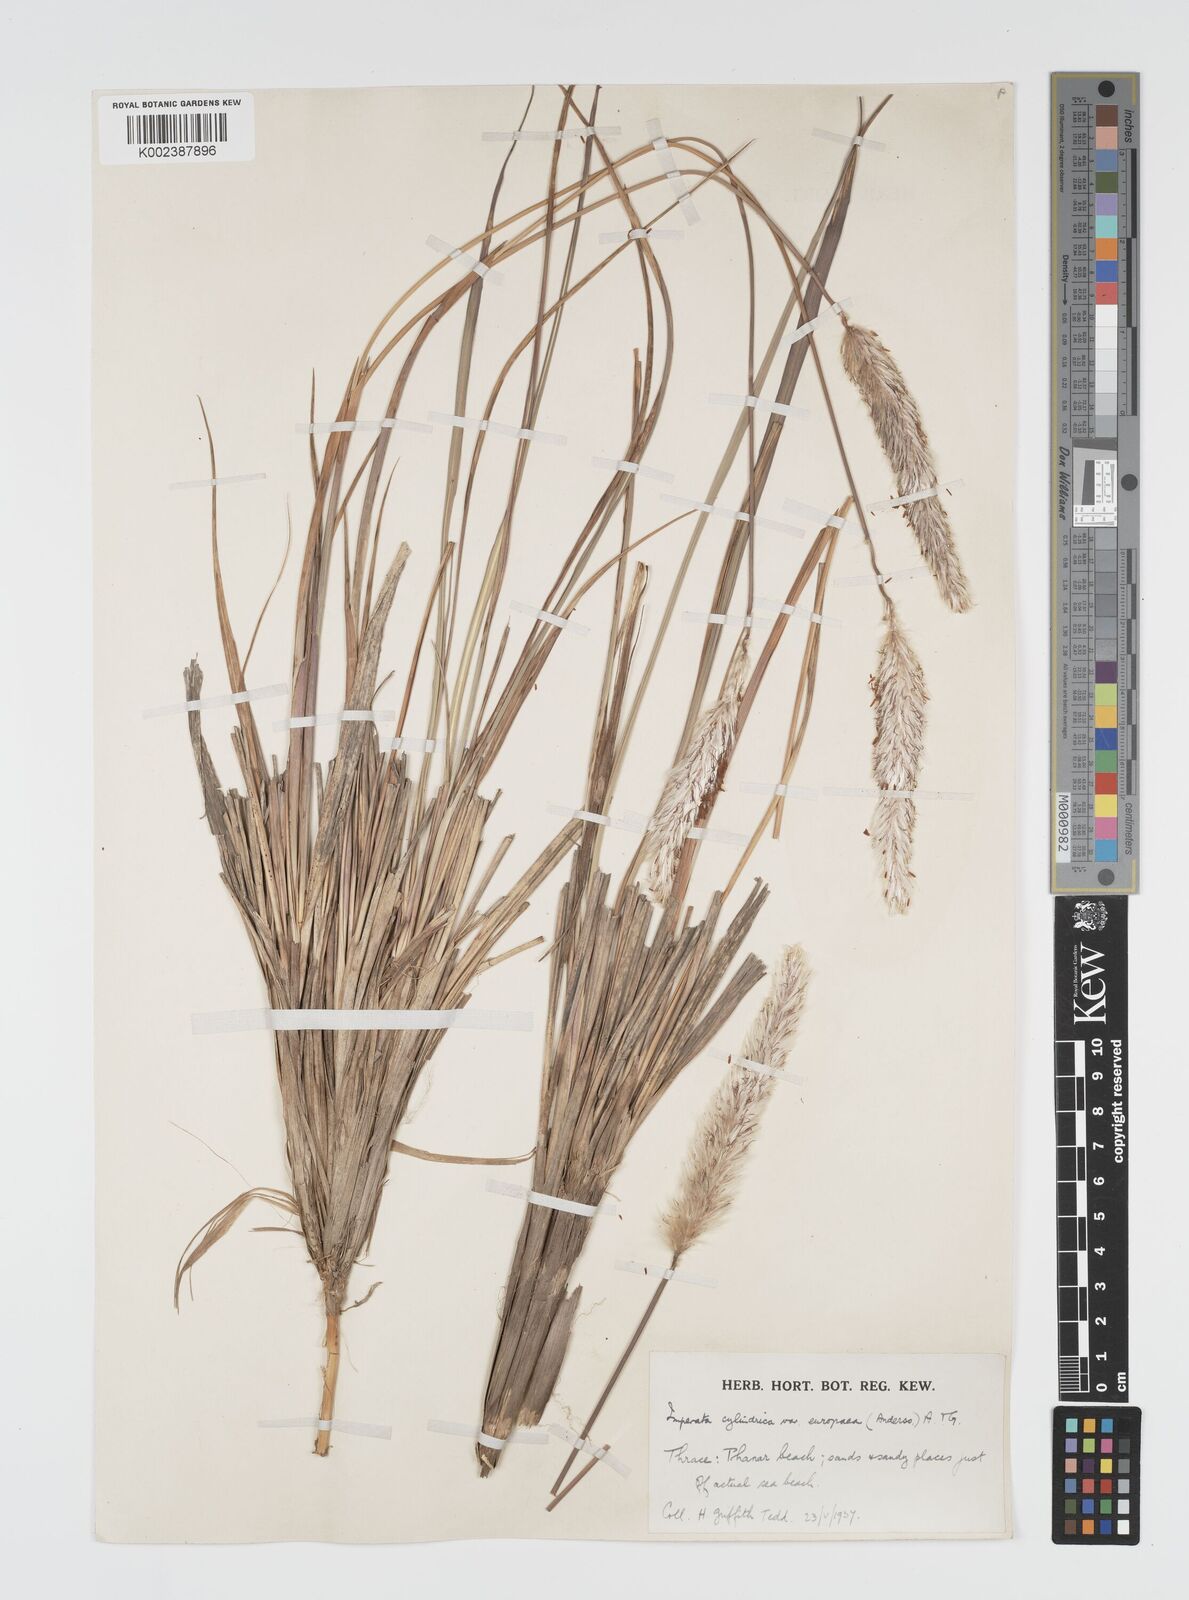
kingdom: Plantae
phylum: Tracheophyta
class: Liliopsida
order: Poales
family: Poaceae
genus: Imperata
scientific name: Imperata cylindrica
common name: Cogongrass
